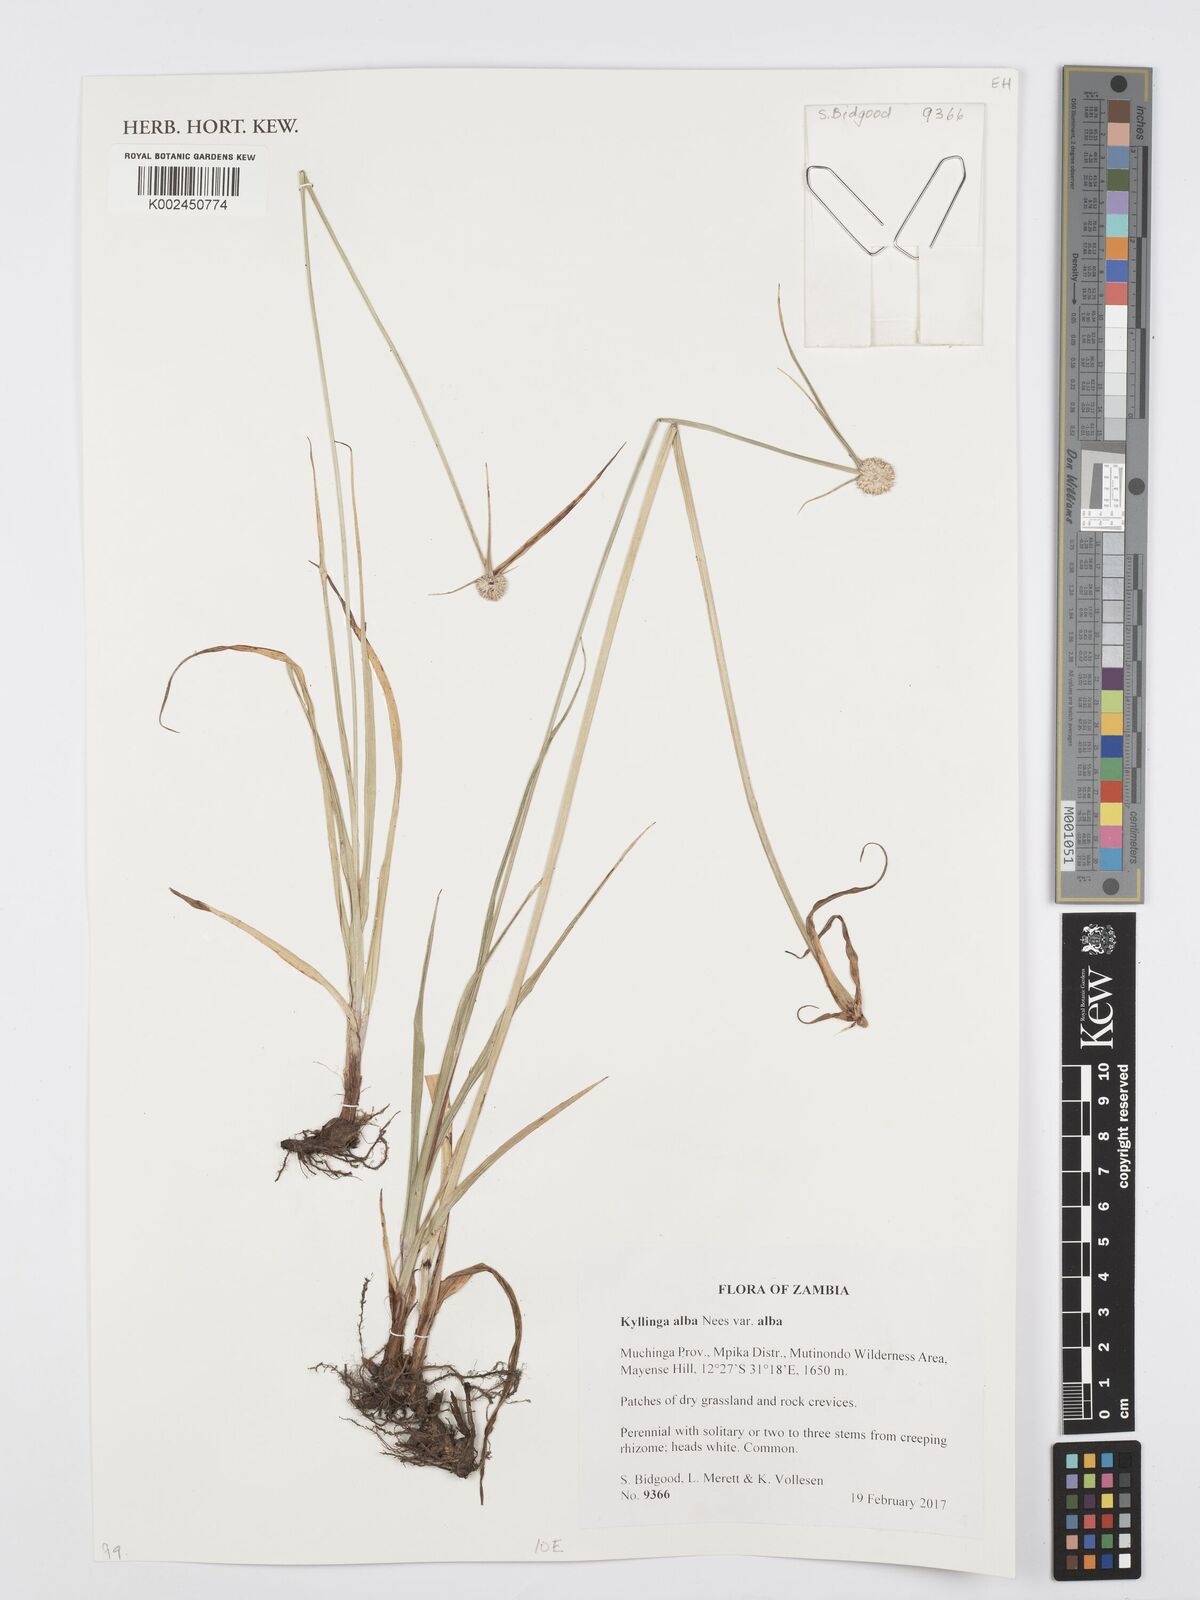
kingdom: Plantae
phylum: Tracheophyta
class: Liliopsida
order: Poales
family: Cyperaceae
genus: Cyperus
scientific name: Cyperus rukwanus
